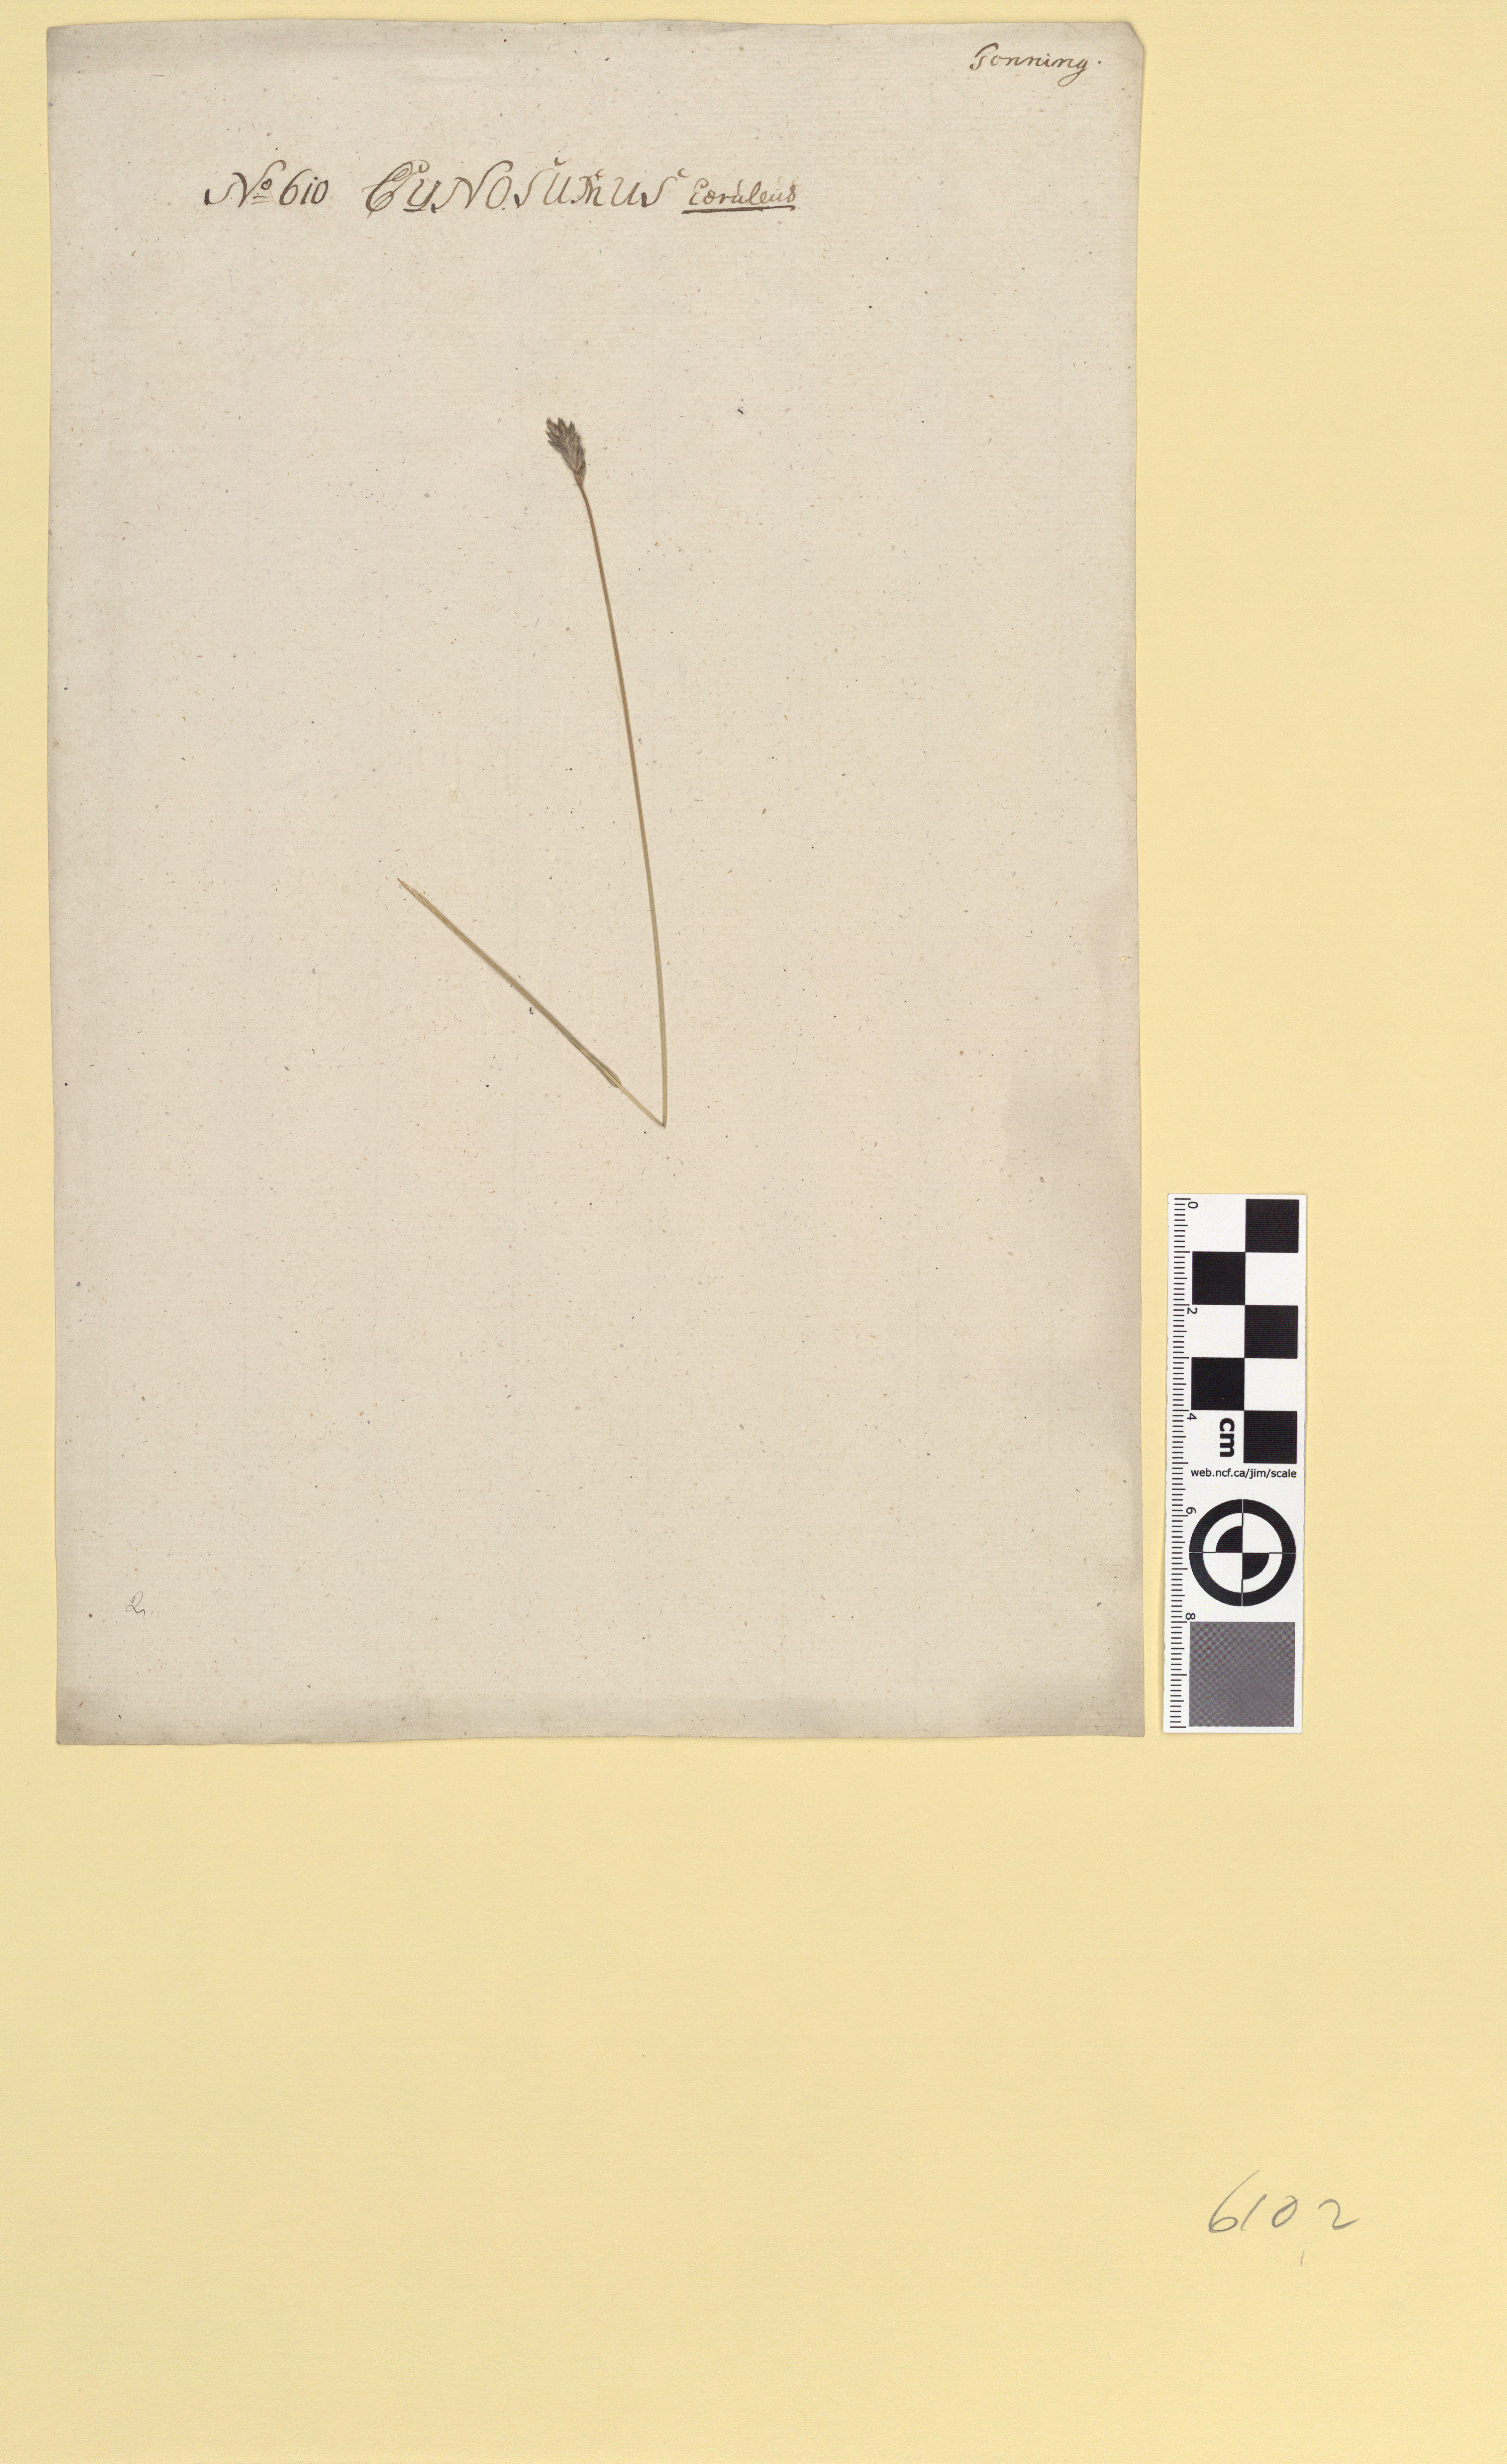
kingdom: Plantae
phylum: Tracheophyta
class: Liliopsida
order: Poales
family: Poaceae
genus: Sesleria
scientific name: Sesleria uliginosa
